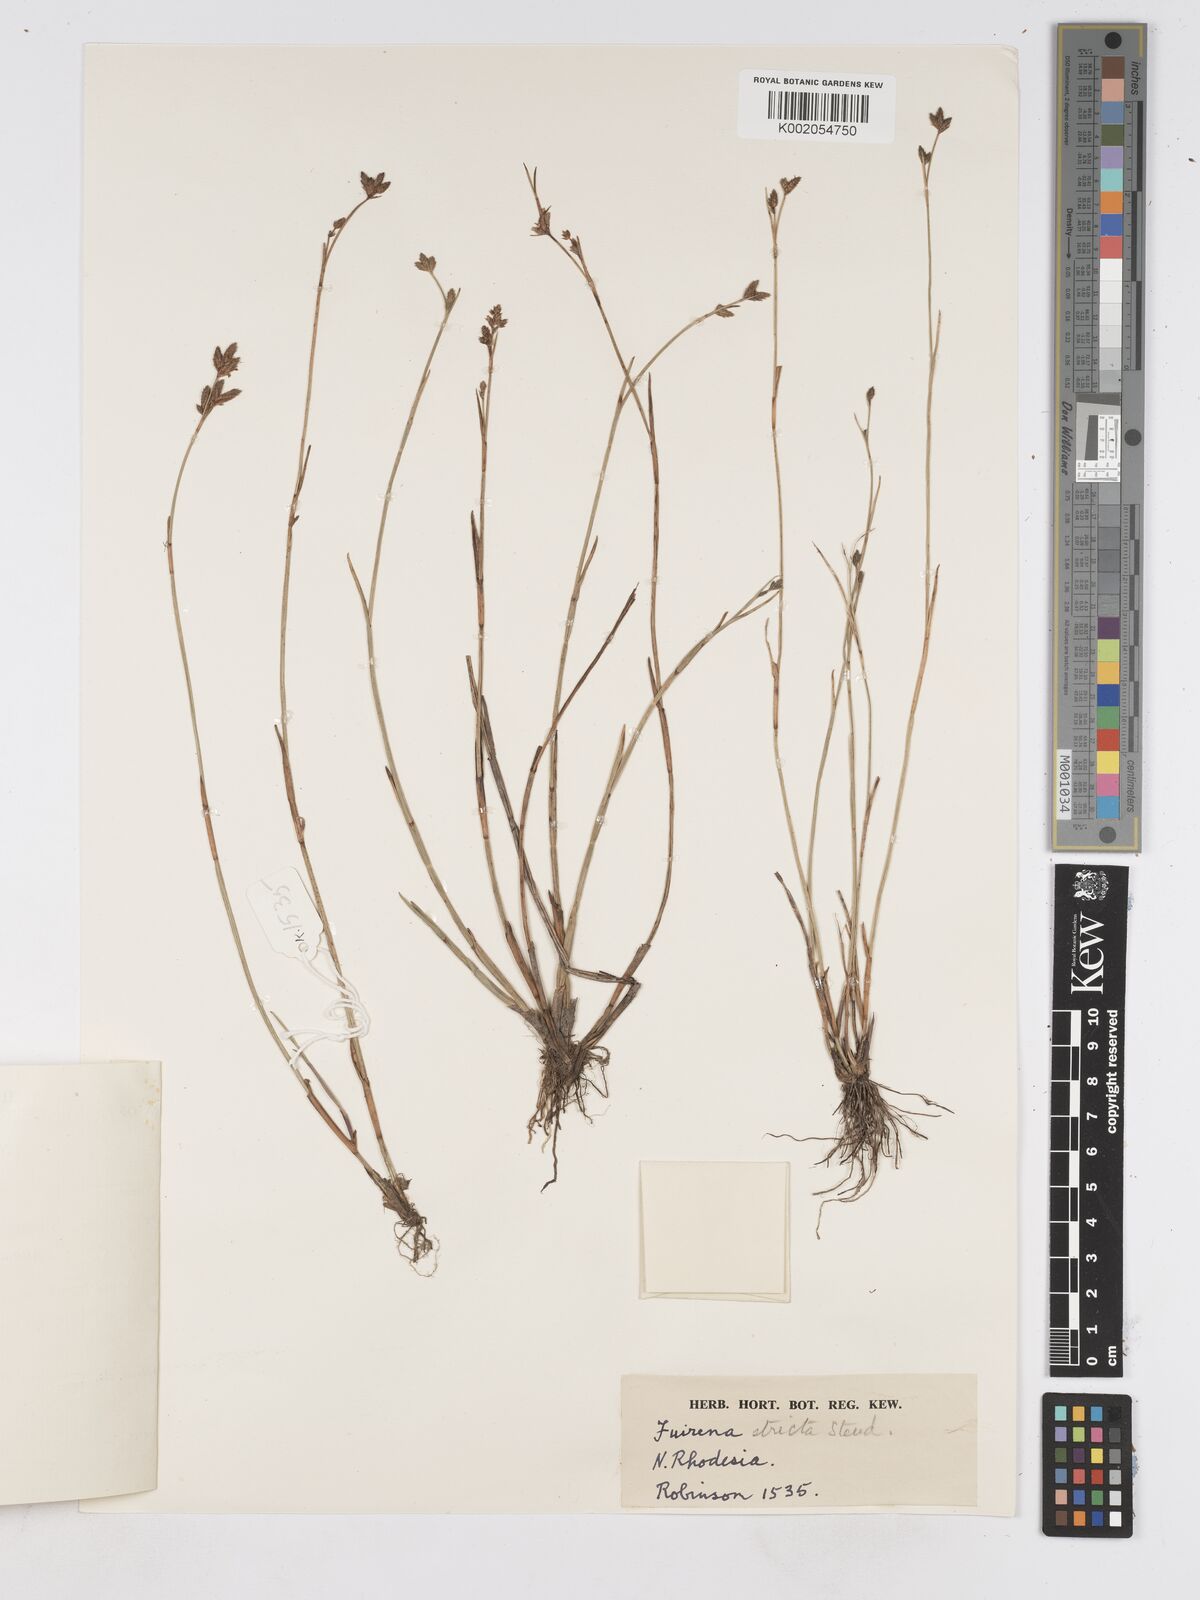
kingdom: Plantae
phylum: Tracheophyta
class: Liliopsida
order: Poales
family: Cyperaceae
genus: Fuirena
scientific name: Fuirena stricta
